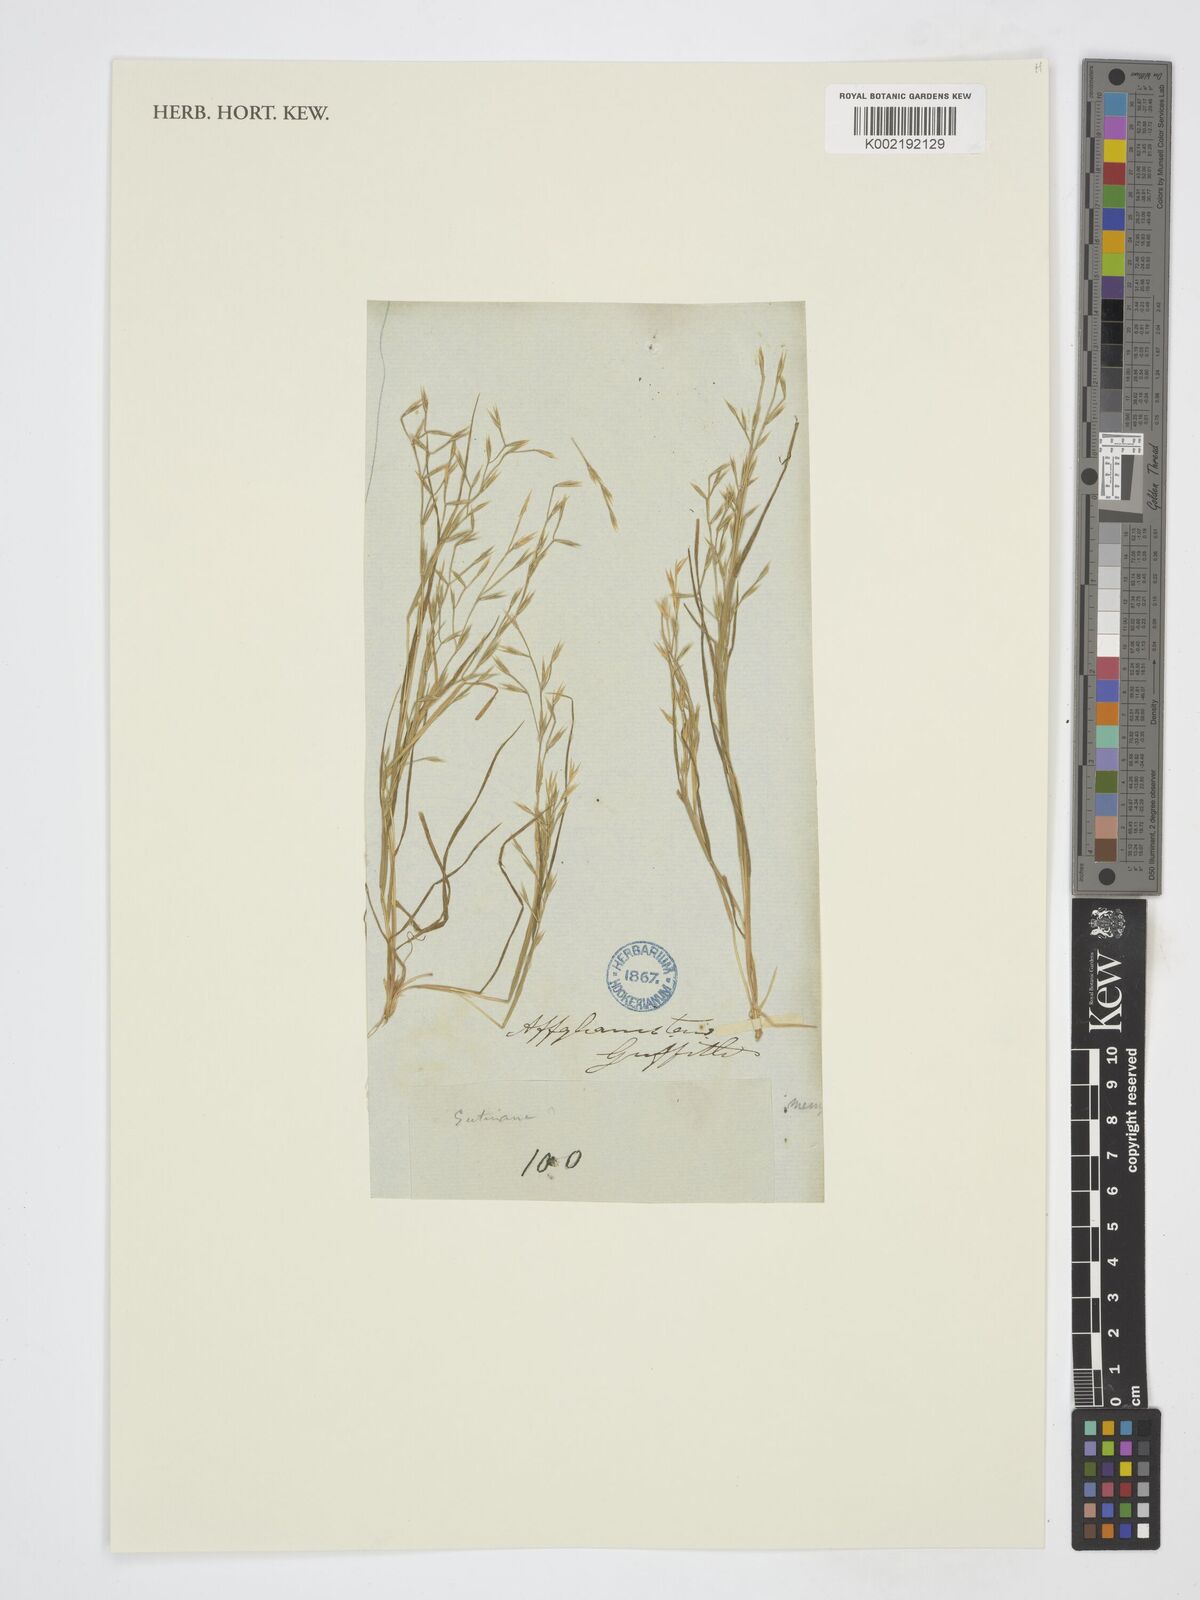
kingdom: Plantae
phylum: Tracheophyta
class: Liliopsida
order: Poales
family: Poaceae
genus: Cutandia
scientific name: Cutandia
